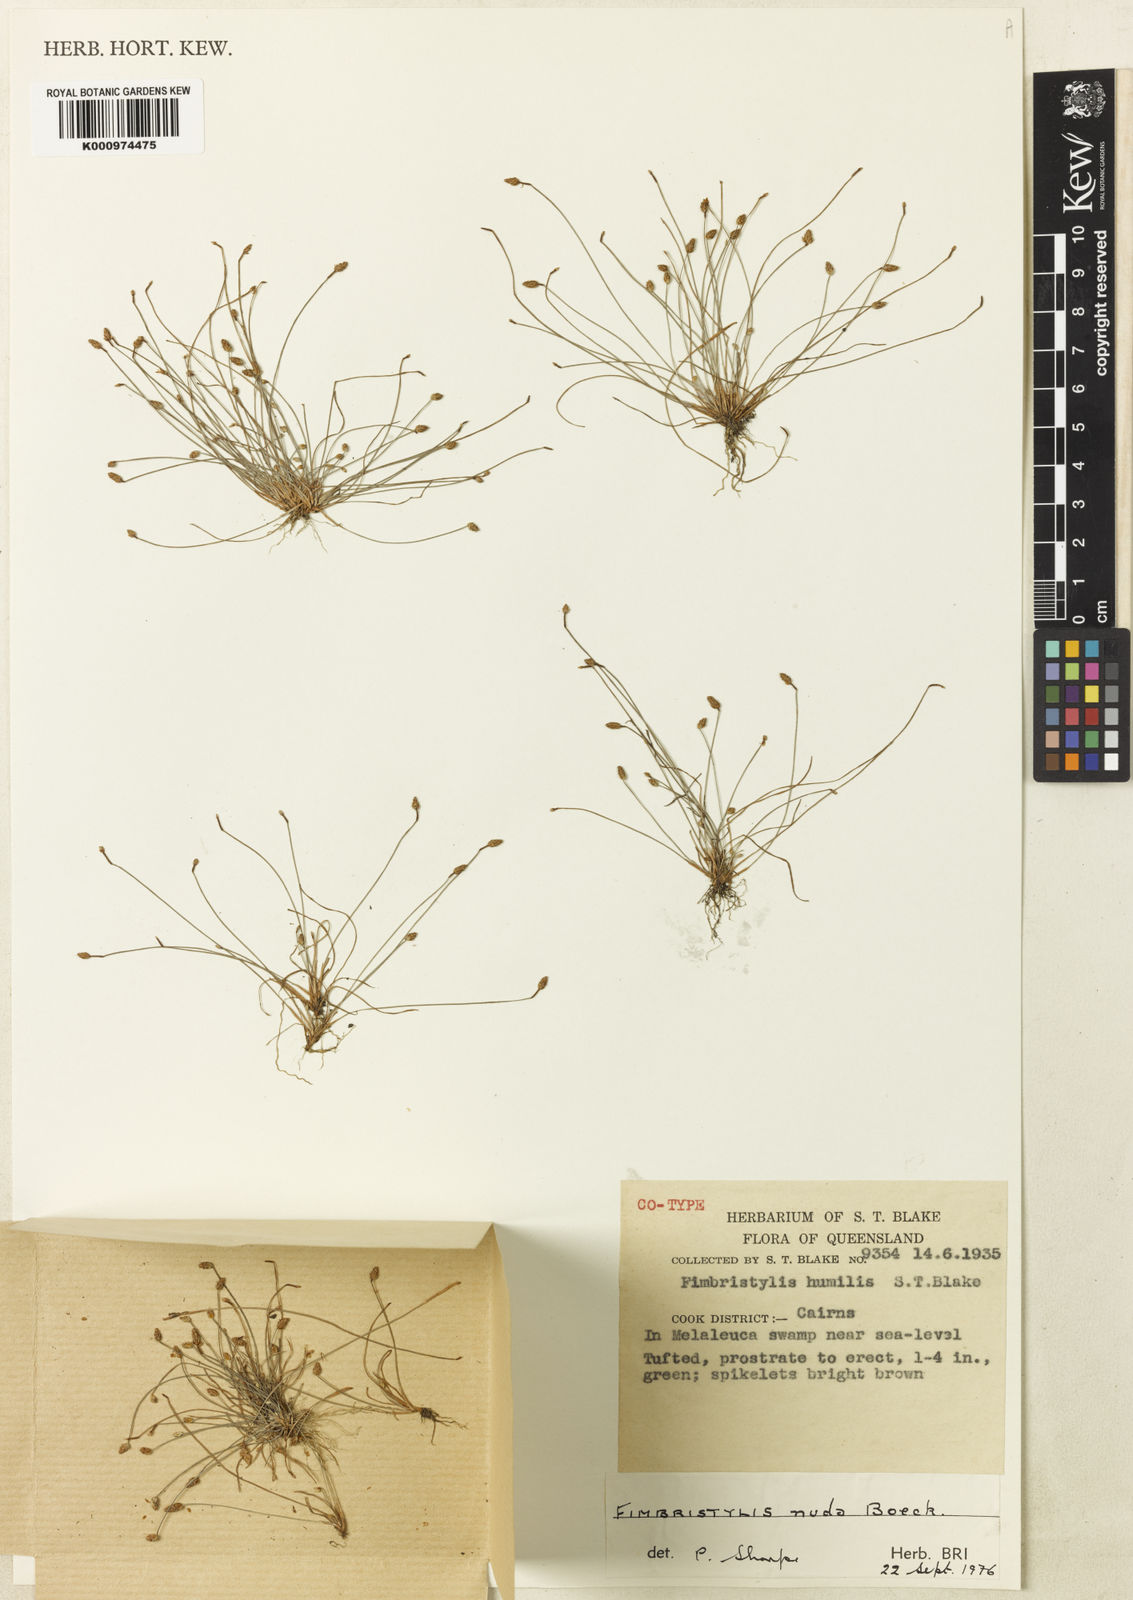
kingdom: Plantae
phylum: Tracheophyta
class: Liliopsida
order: Poales
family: Cyperaceae
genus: Fimbristylis
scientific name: Fimbristylis nuda
